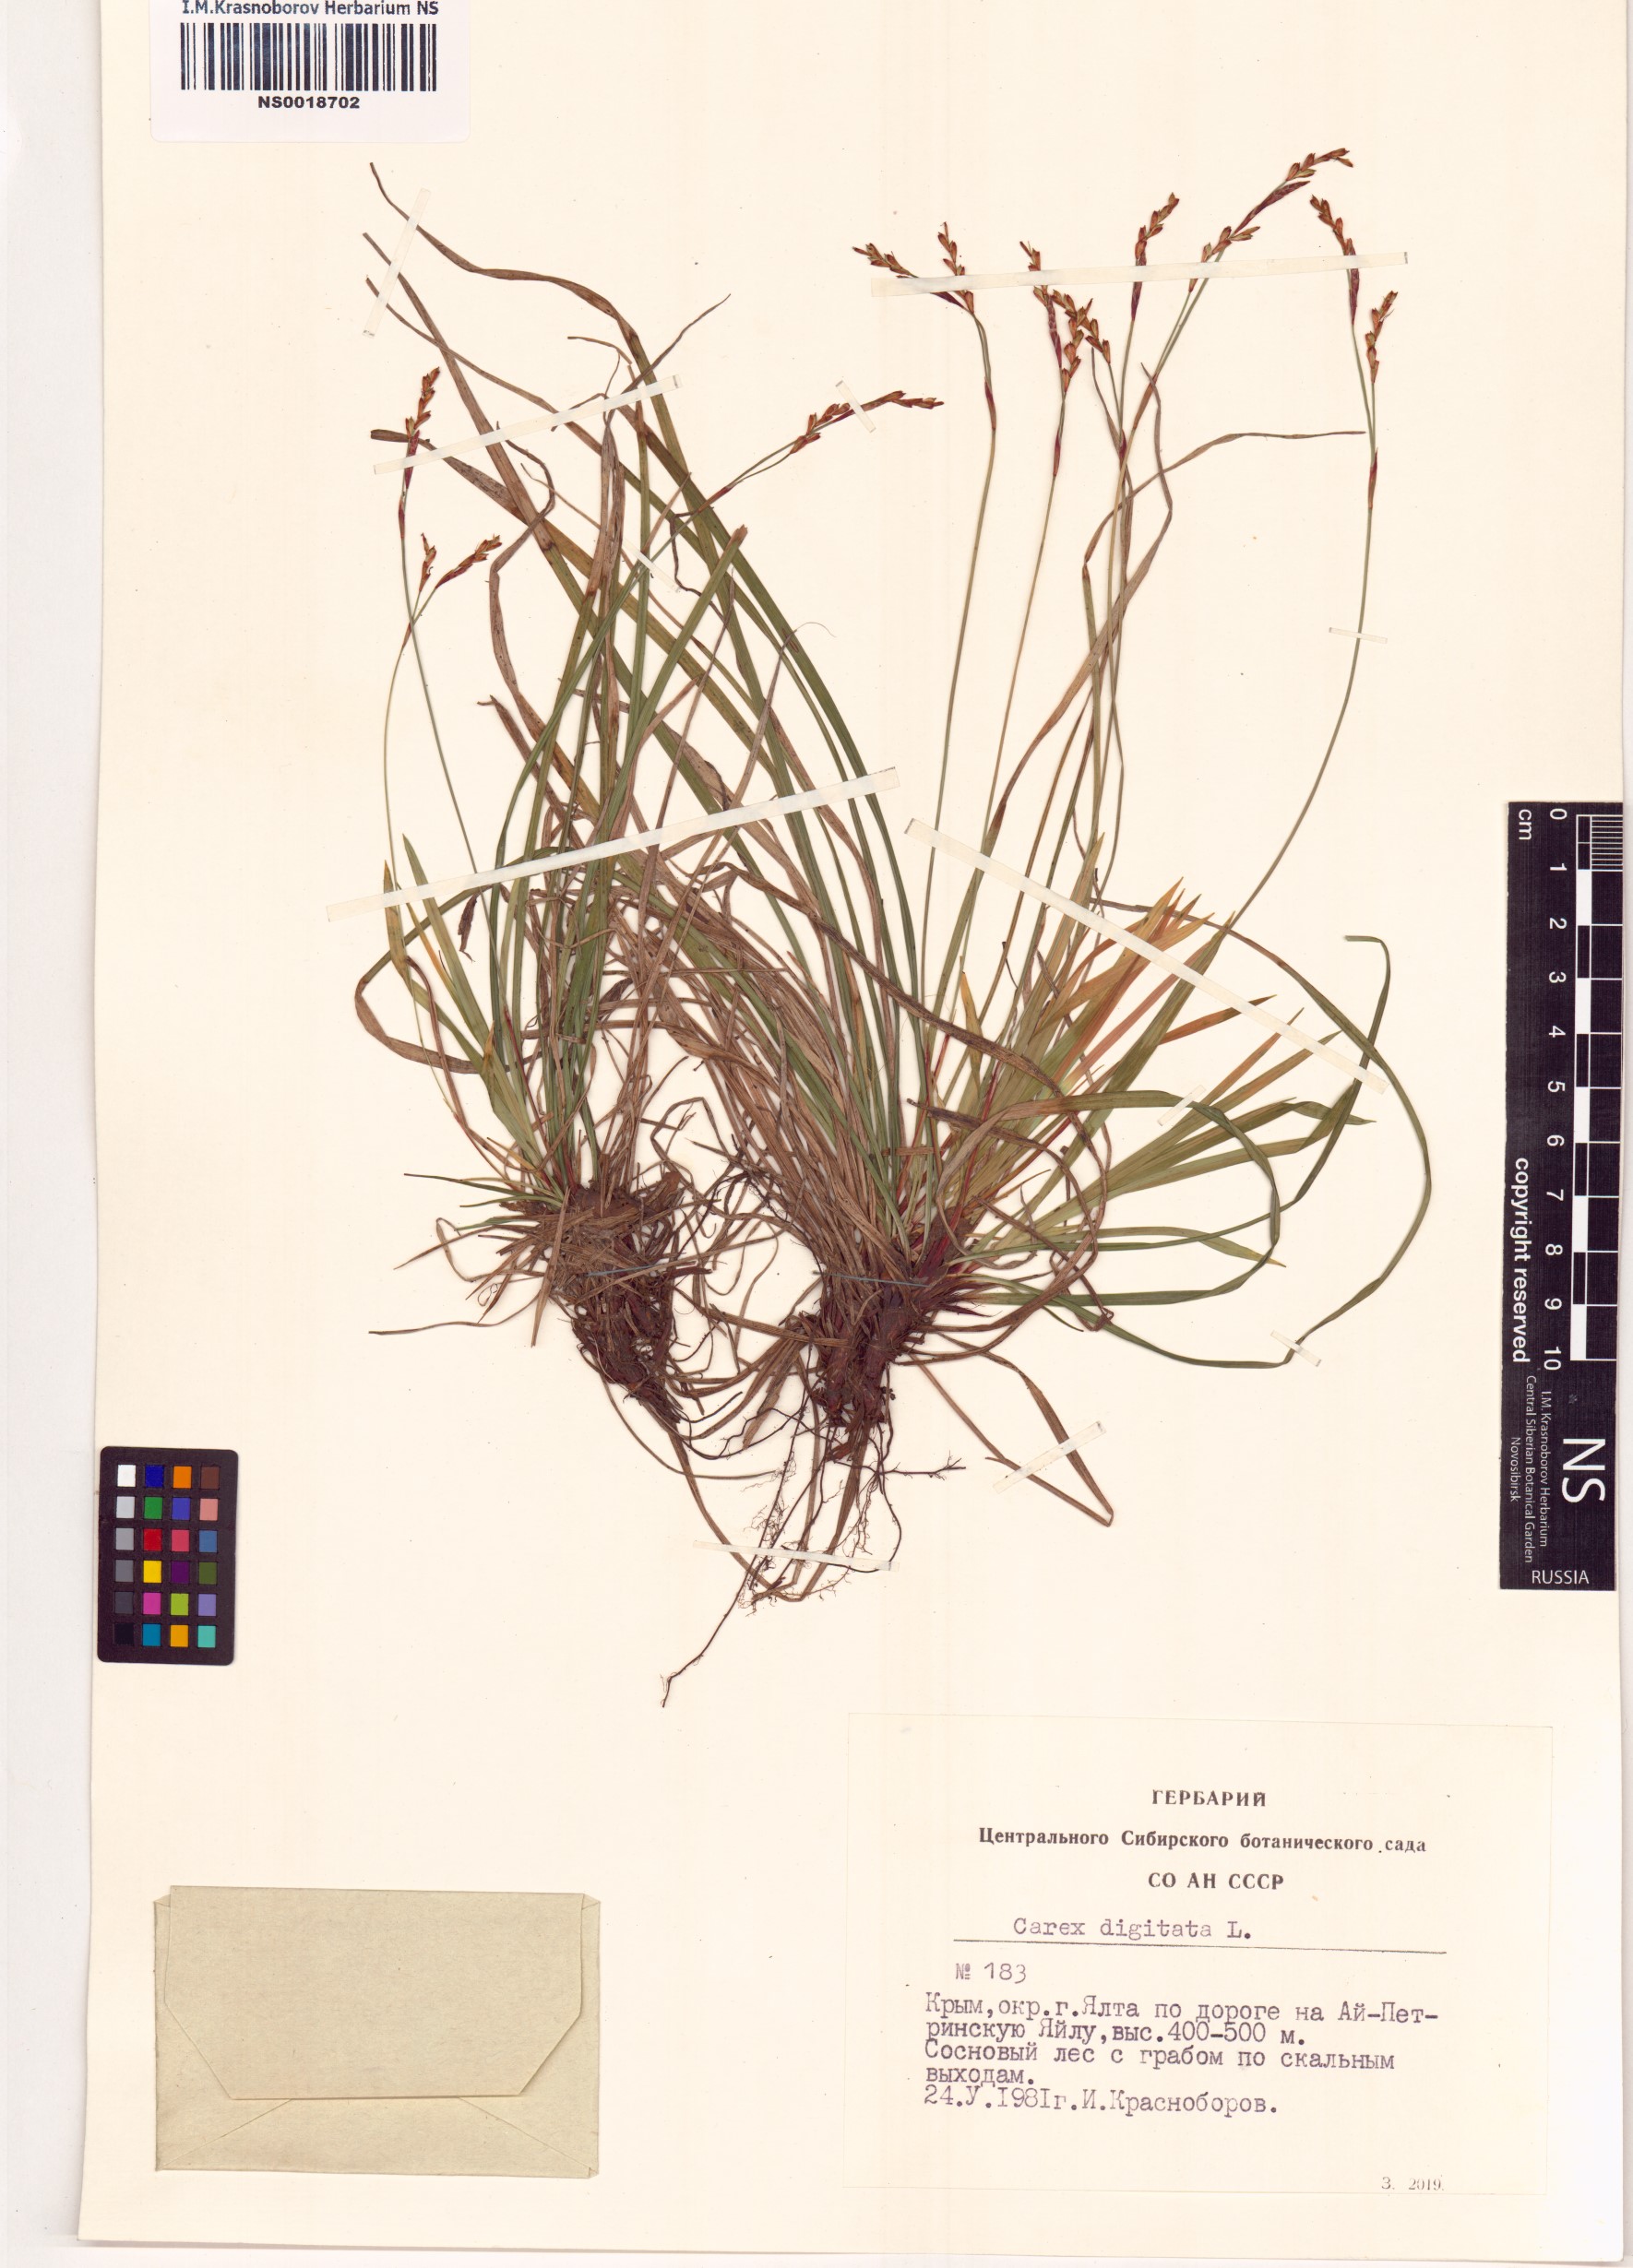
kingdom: Plantae
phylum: Tracheophyta
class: Liliopsida
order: Poales
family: Cyperaceae
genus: Carex
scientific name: Carex digitata
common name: Fingered sedge
